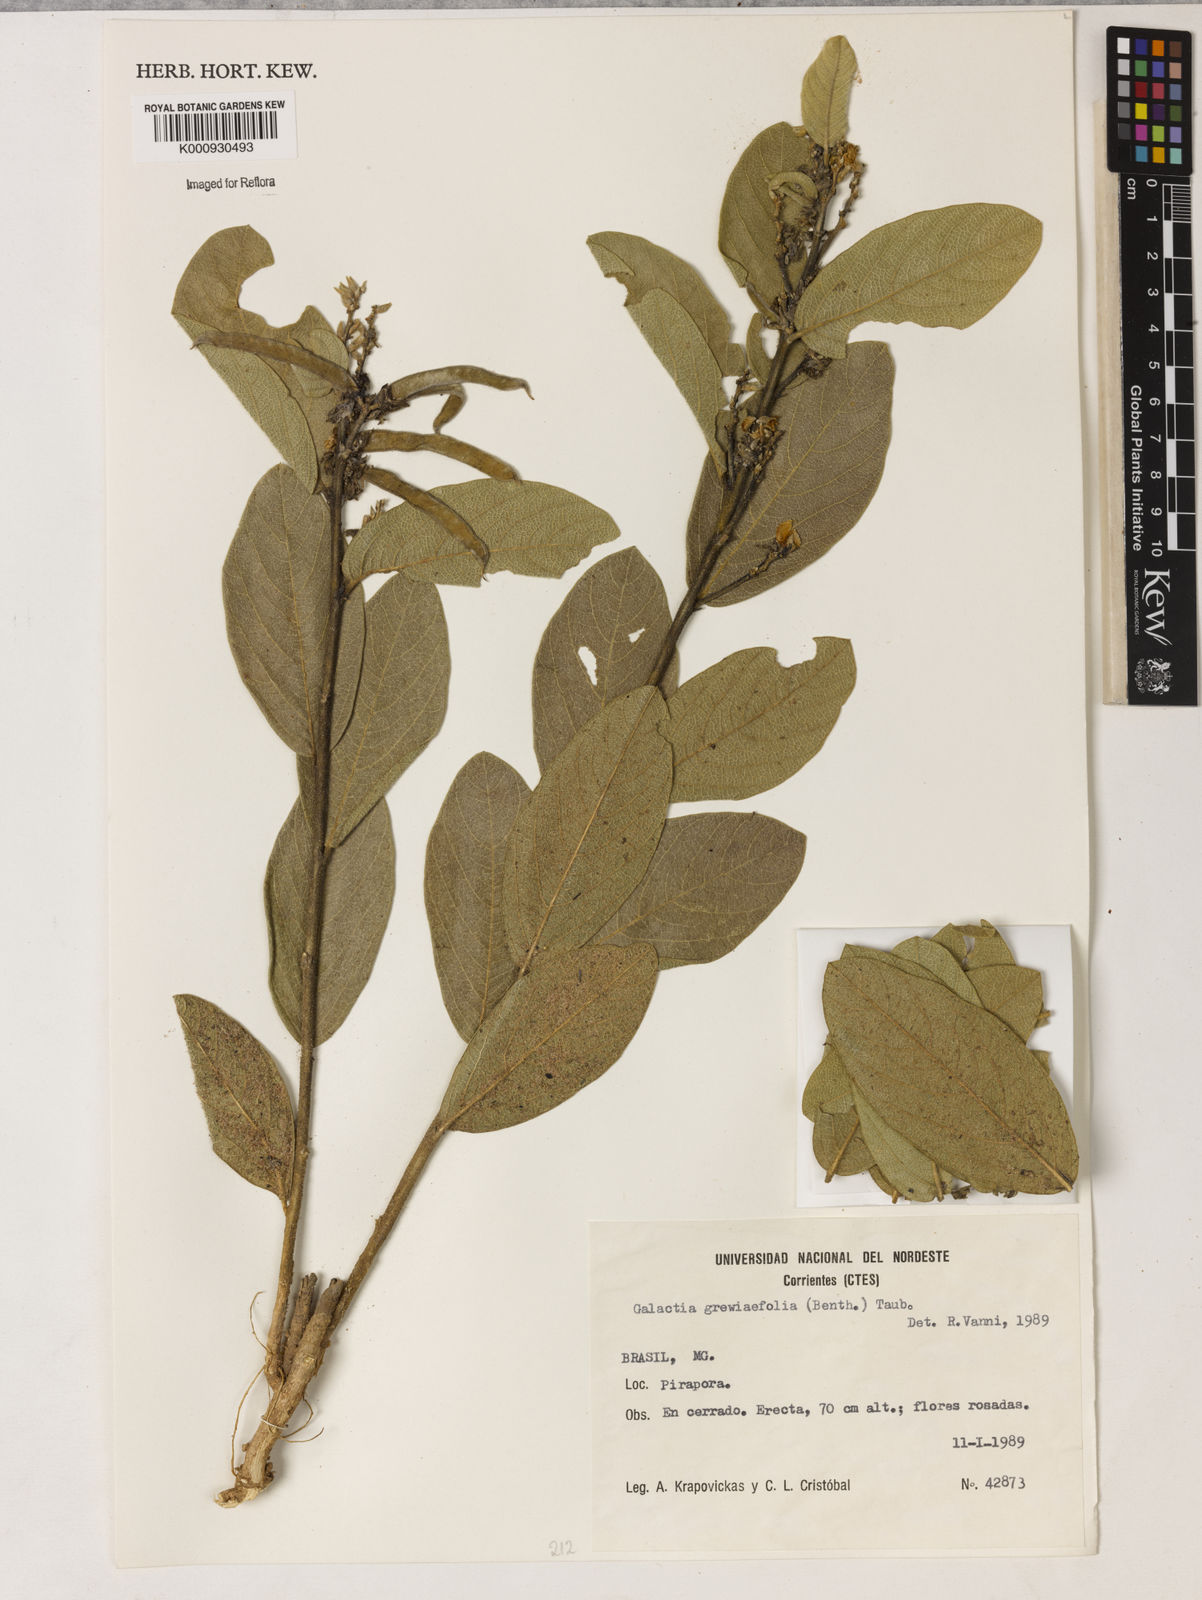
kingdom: Plantae
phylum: Tracheophyta
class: Magnoliopsida
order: Fabales
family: Fabaceae
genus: Galactia
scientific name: Galactia
